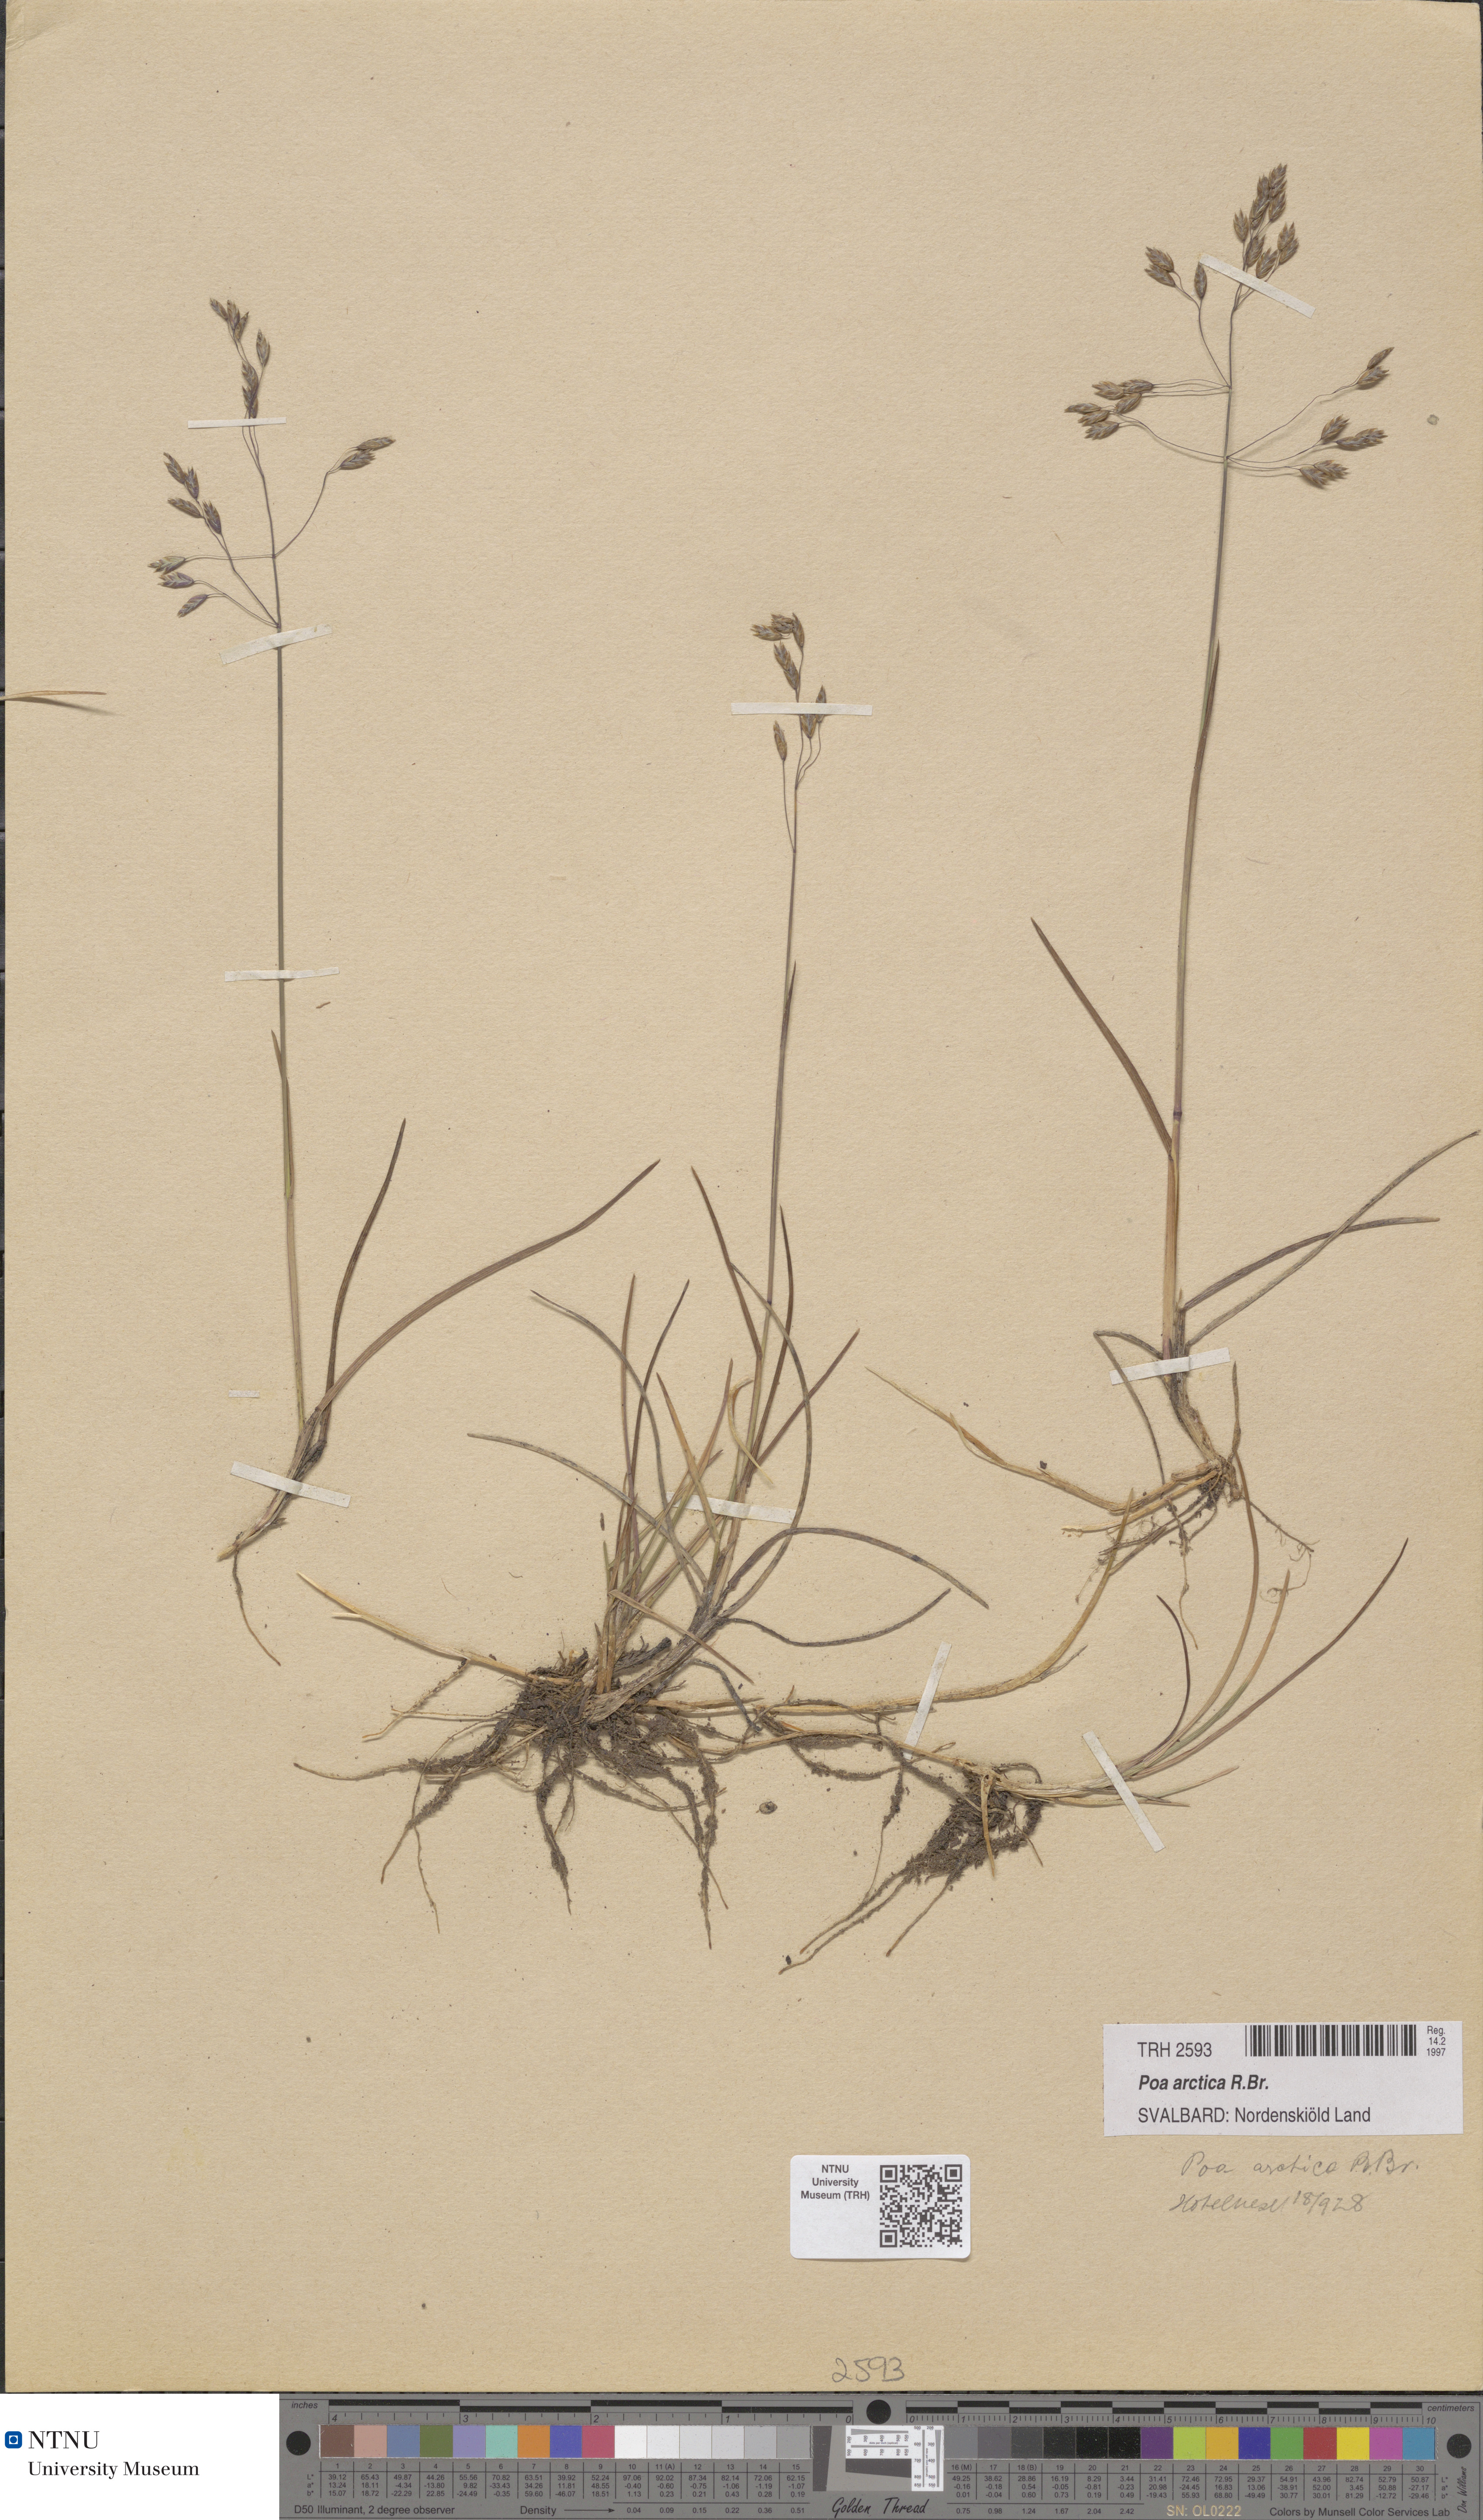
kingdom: Plantae
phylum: Tracheophyta
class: Liliopsida
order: Poales
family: Poaceae
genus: Poa
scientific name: Poa arctica
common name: Arctic bluegrass
